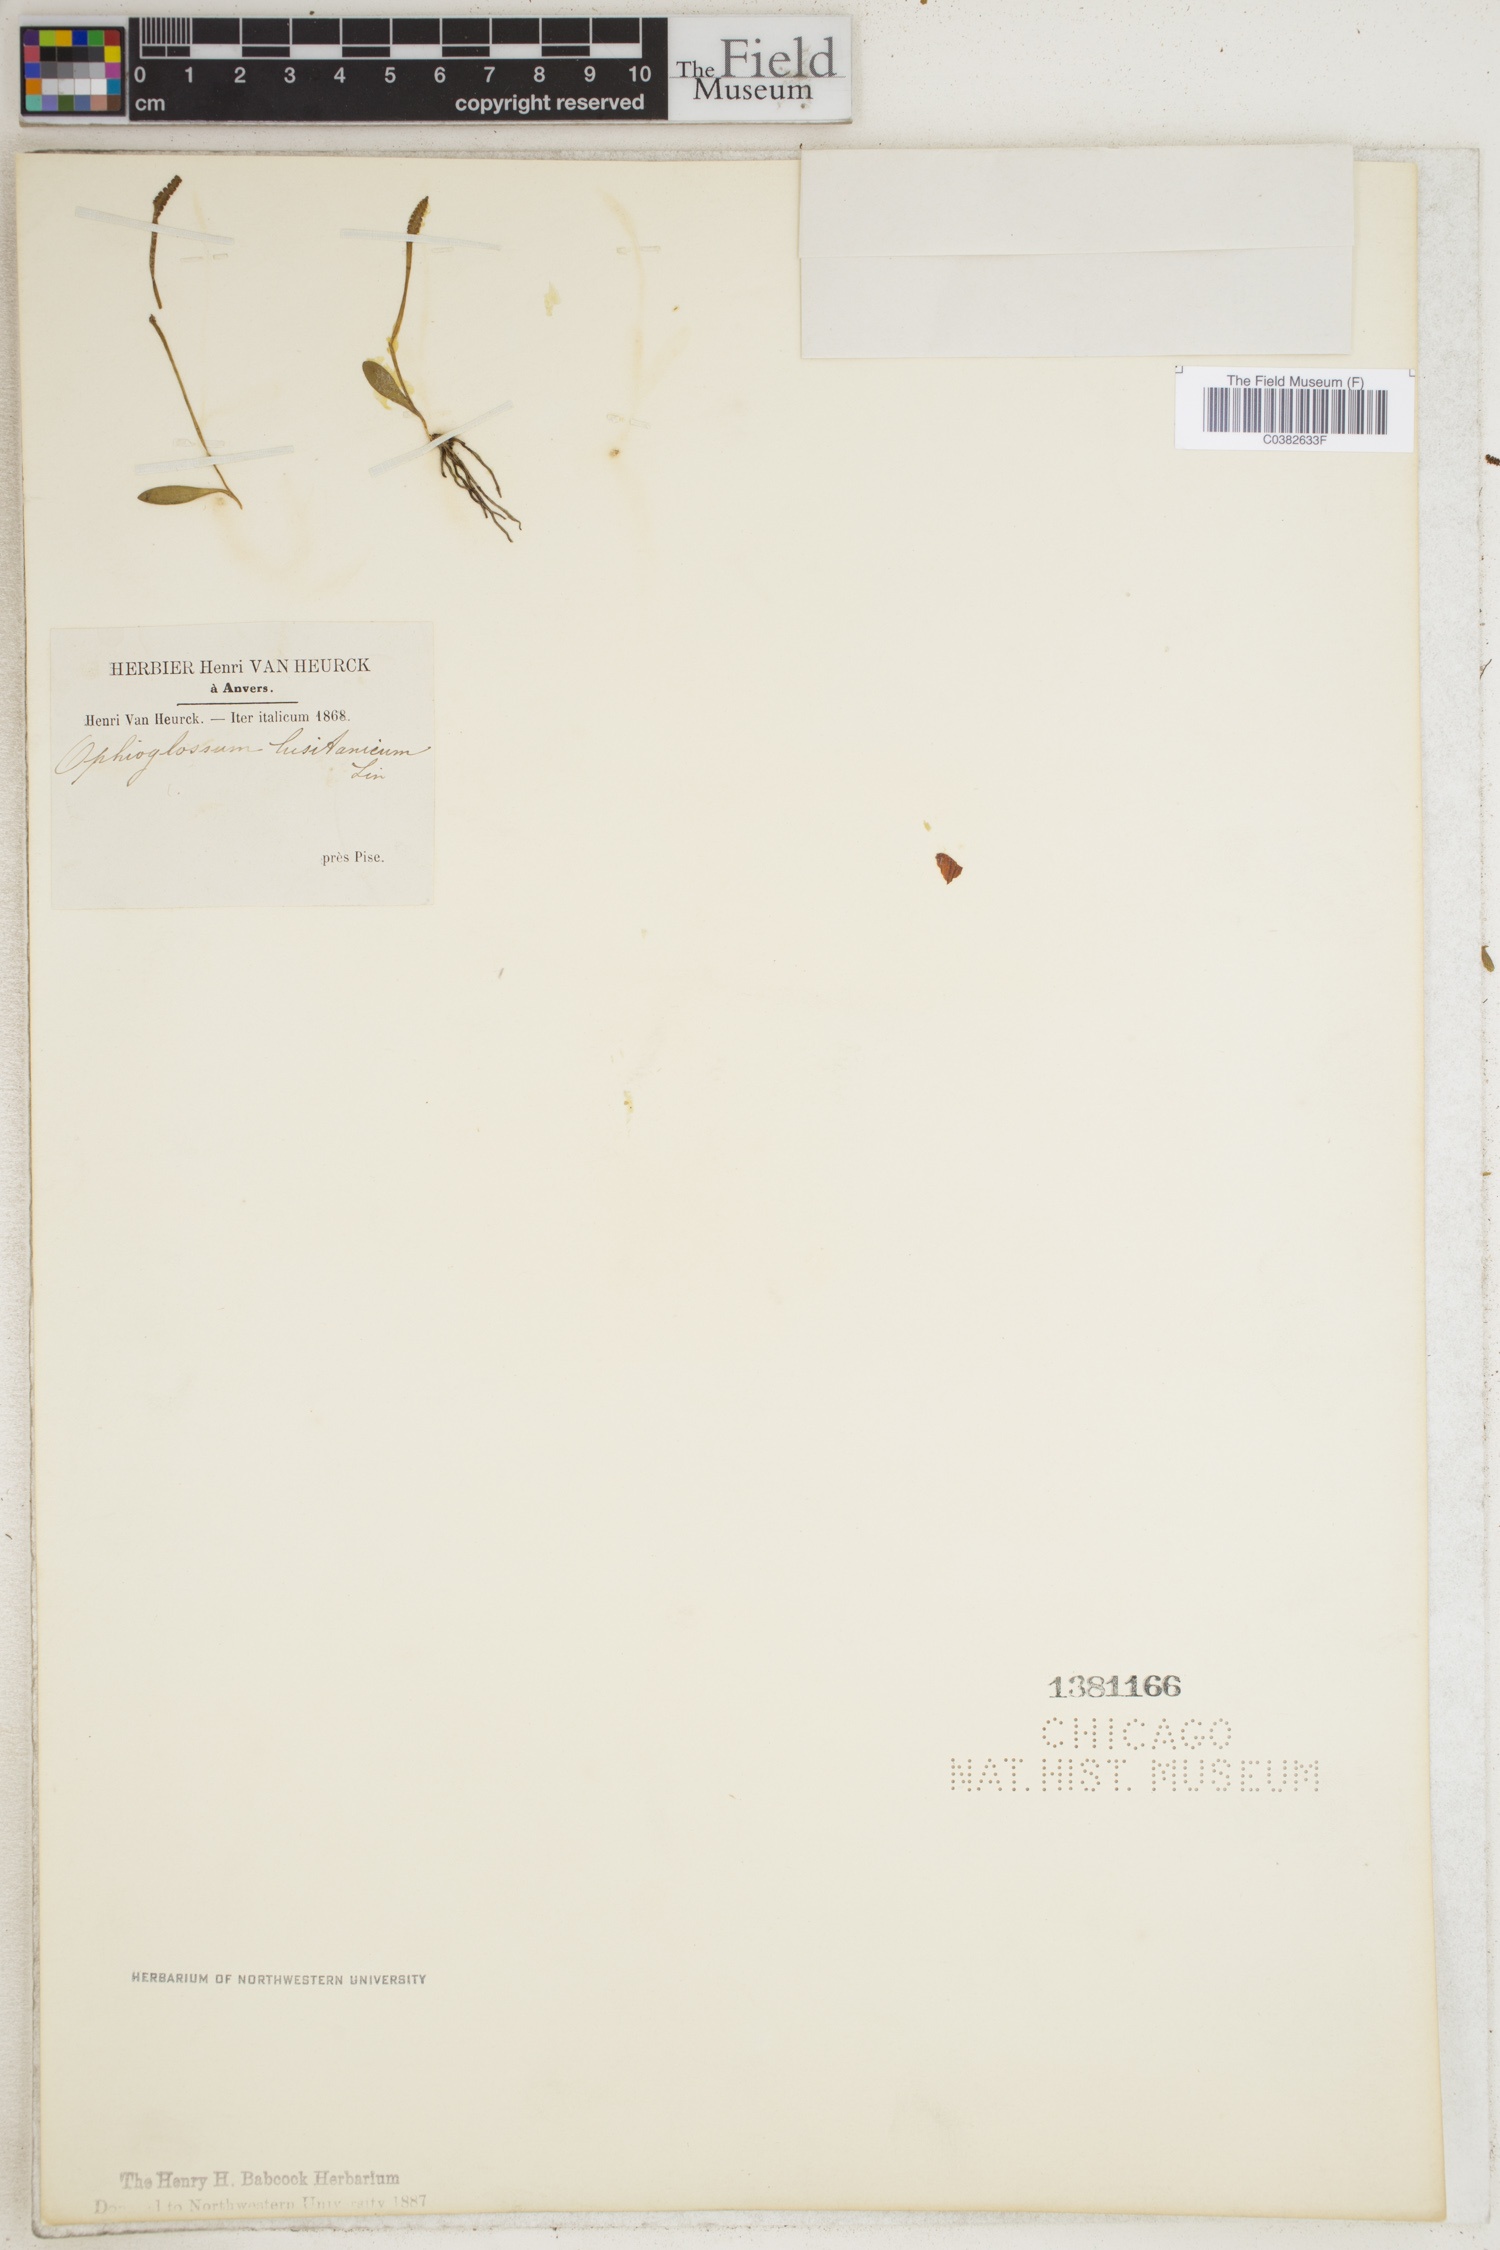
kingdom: Plantae
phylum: Tracheophyta
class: Polypodiopsida
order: Ophioglossales
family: Ophioglossaceae
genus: Ophioglossum
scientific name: Ophioglossum lusitanicum
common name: Least adder's-tongue
